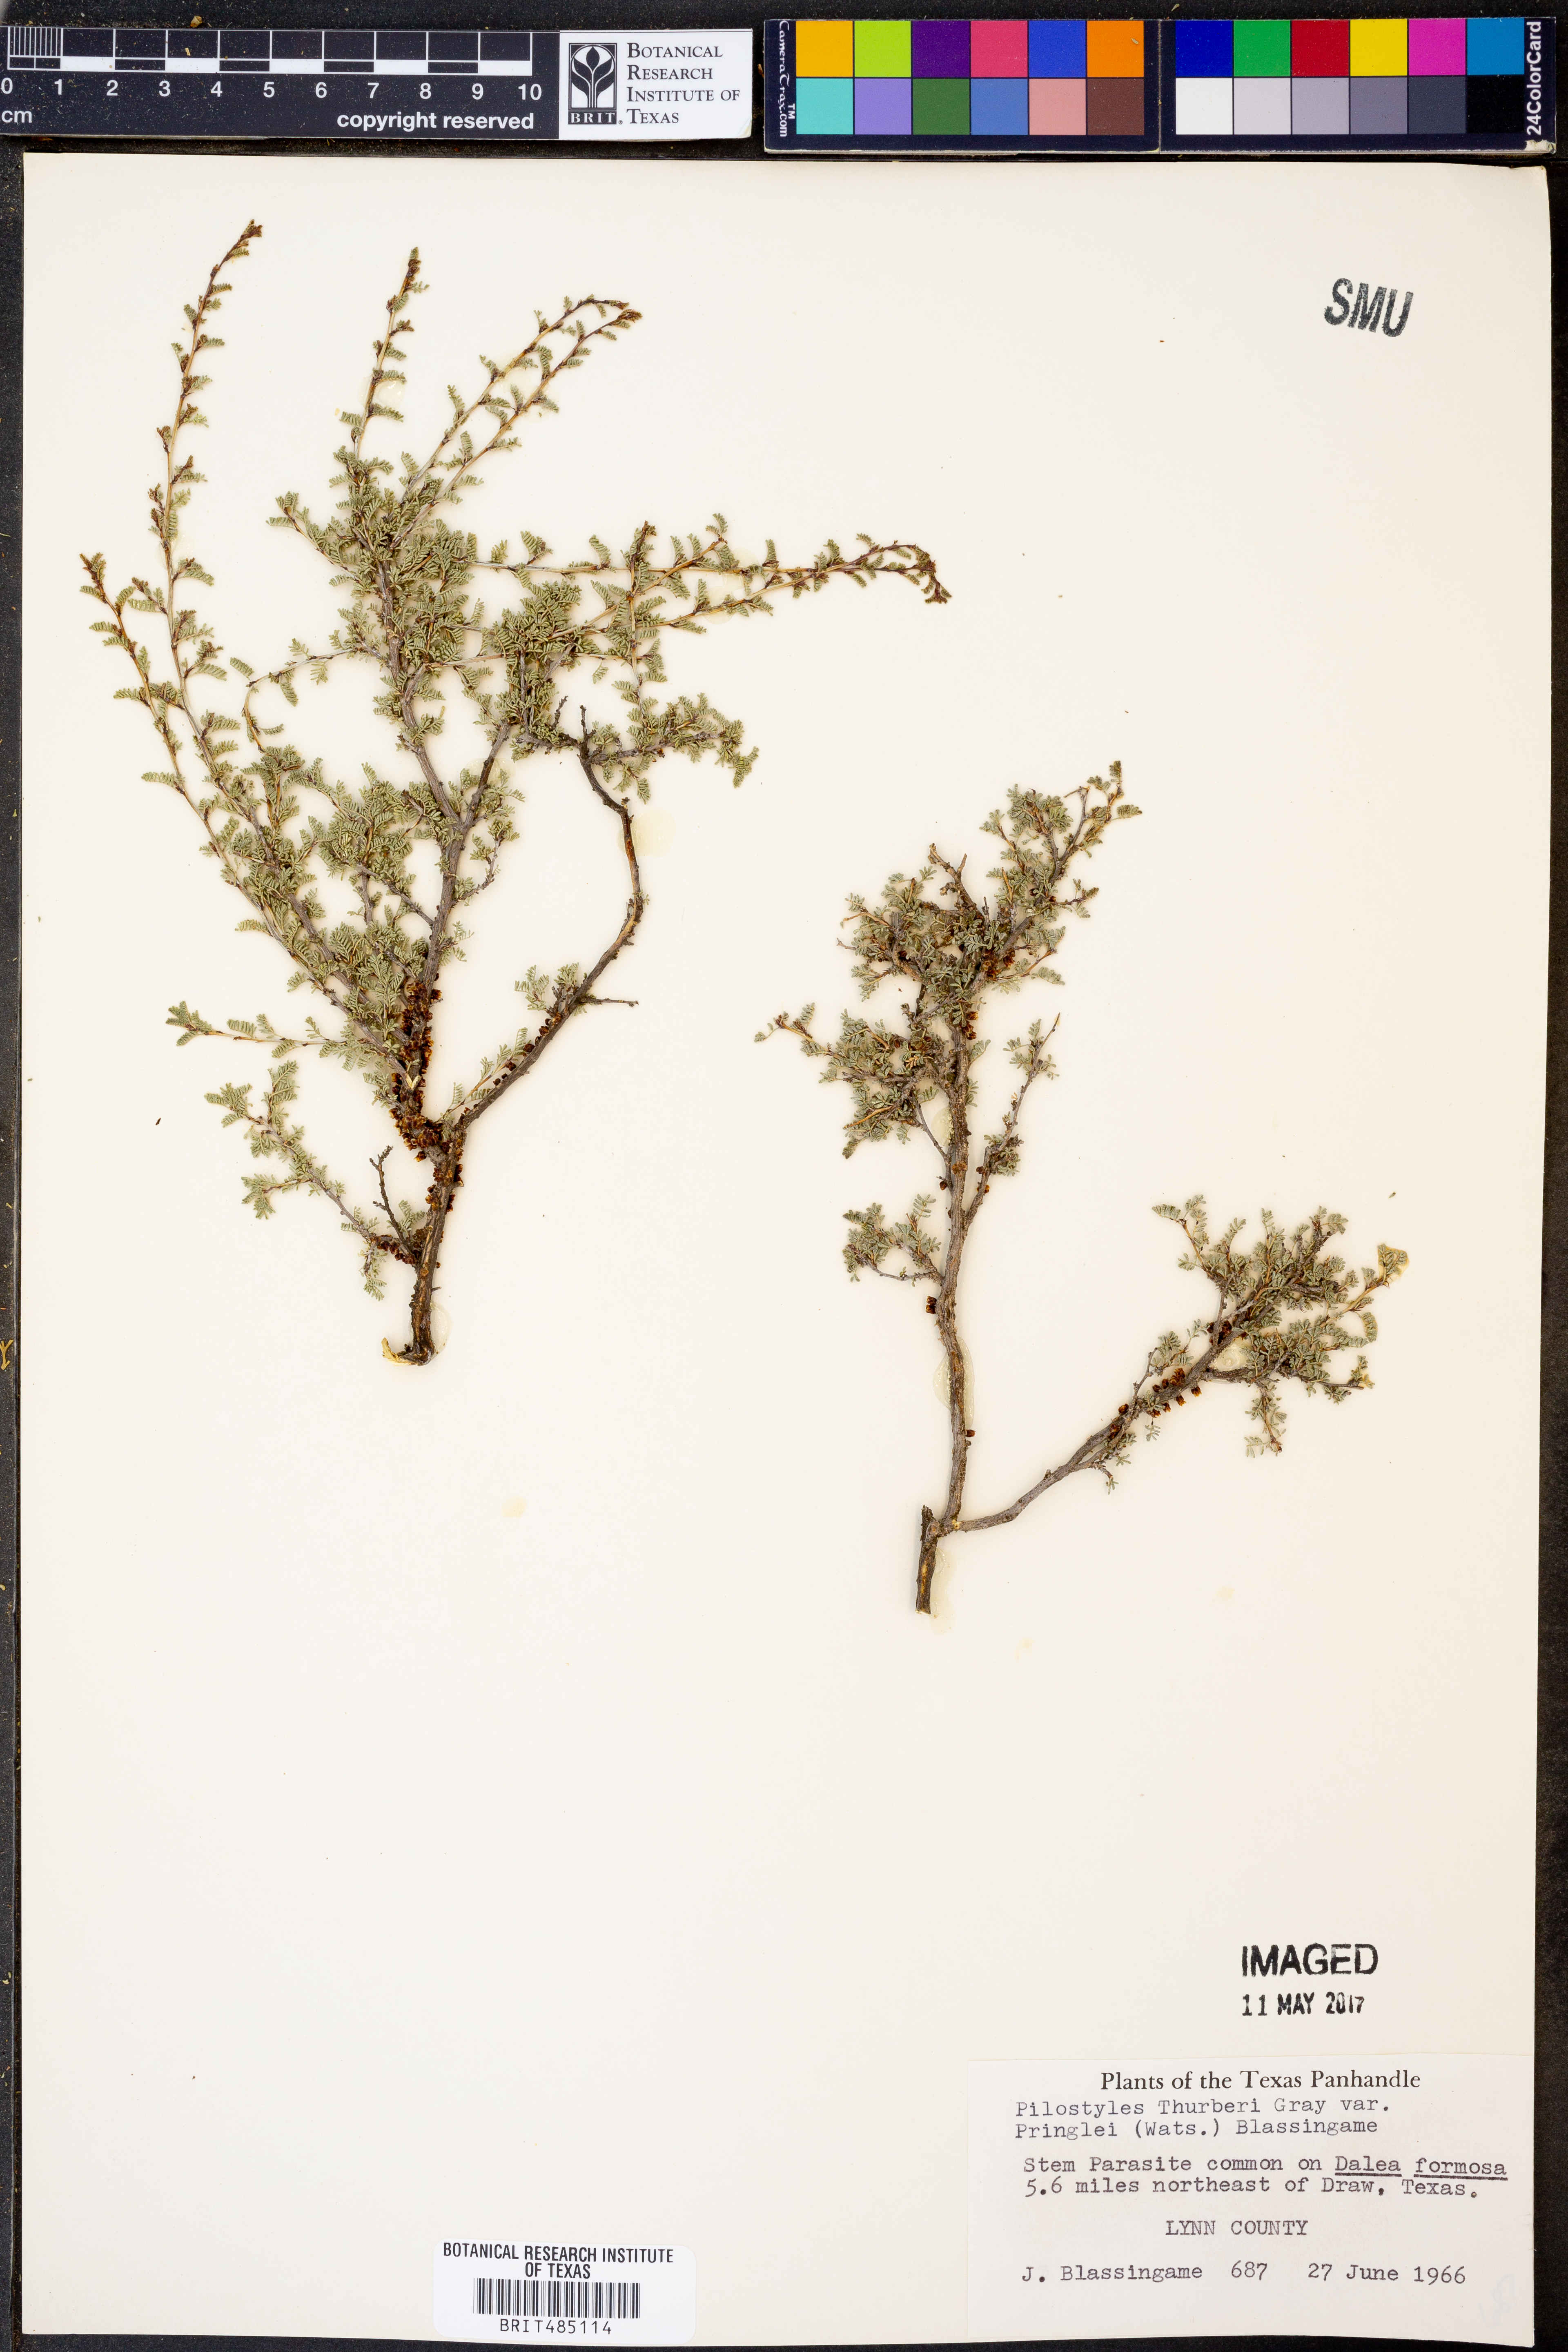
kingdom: Plantae
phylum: Tracheophyta
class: Magnoliopsida
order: Cucurbitales
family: Apodanthaceae
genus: Pilostyles
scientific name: Pilostyles thurberi
